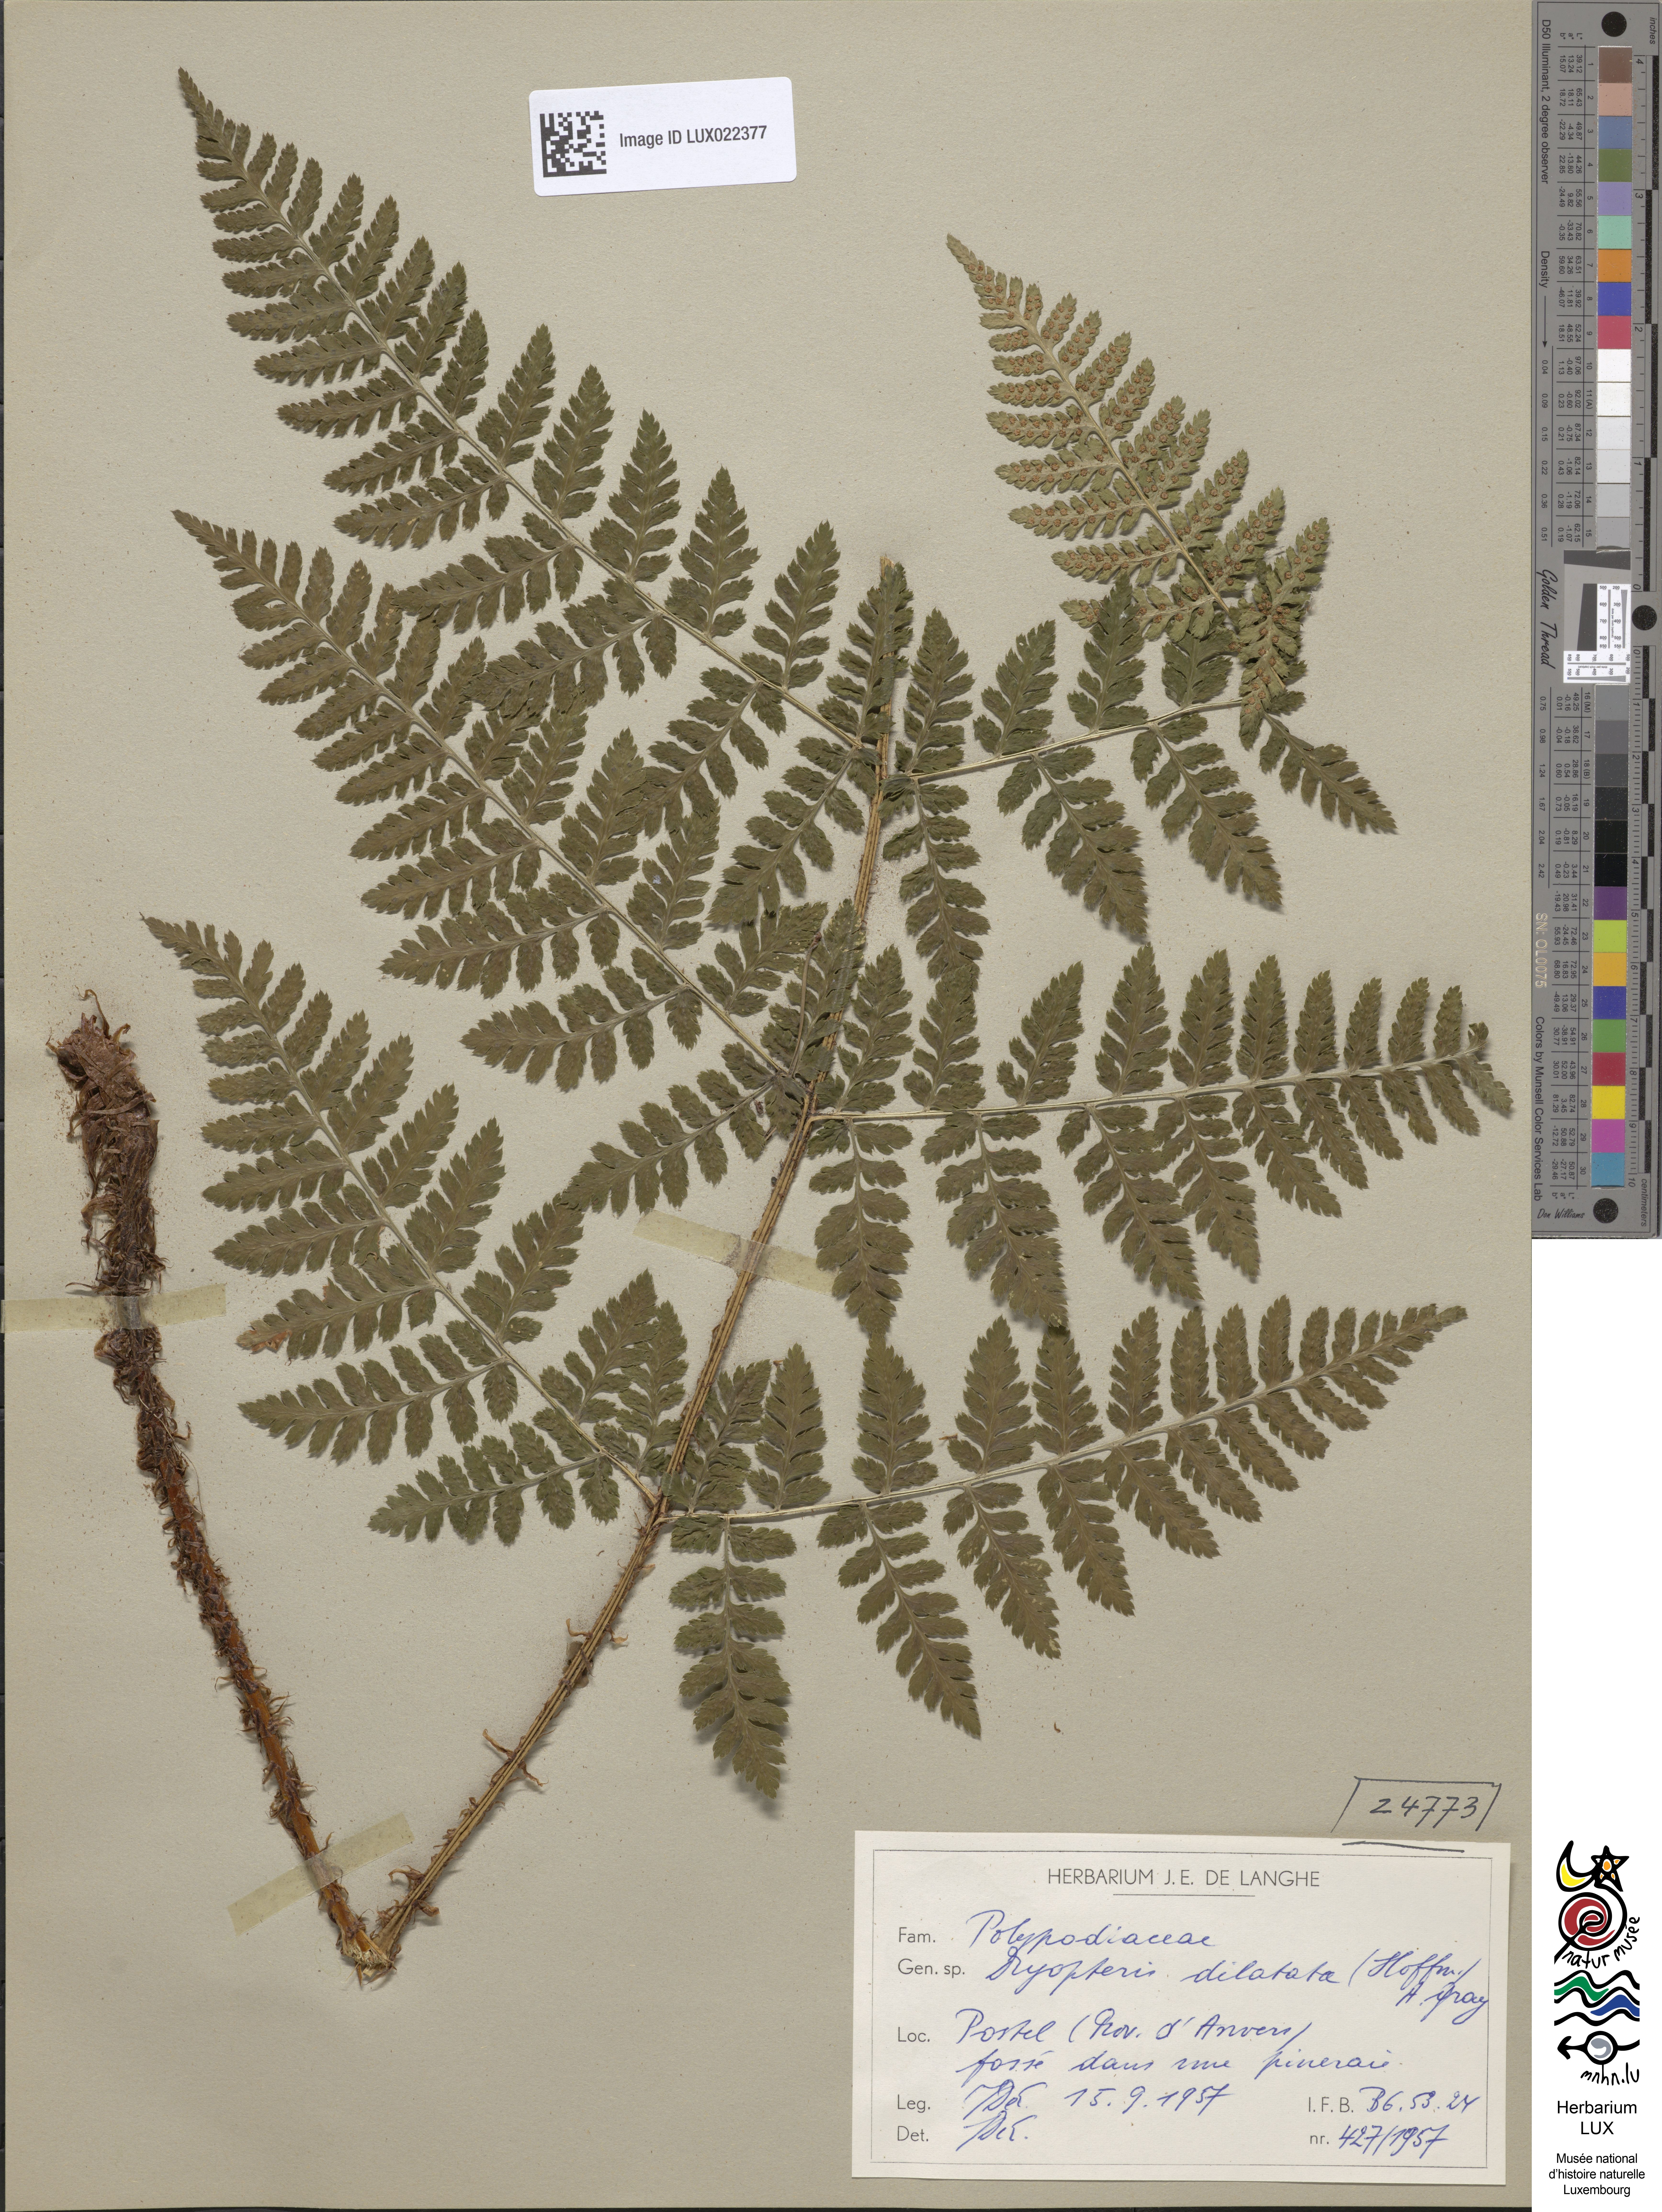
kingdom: Plantae
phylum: Tracheophyta
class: Polypodiopsida
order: Polypodiales
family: Dryopteridaceae
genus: Dryopteris
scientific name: Dryopteris dilatata
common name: Broad buckler-fern
